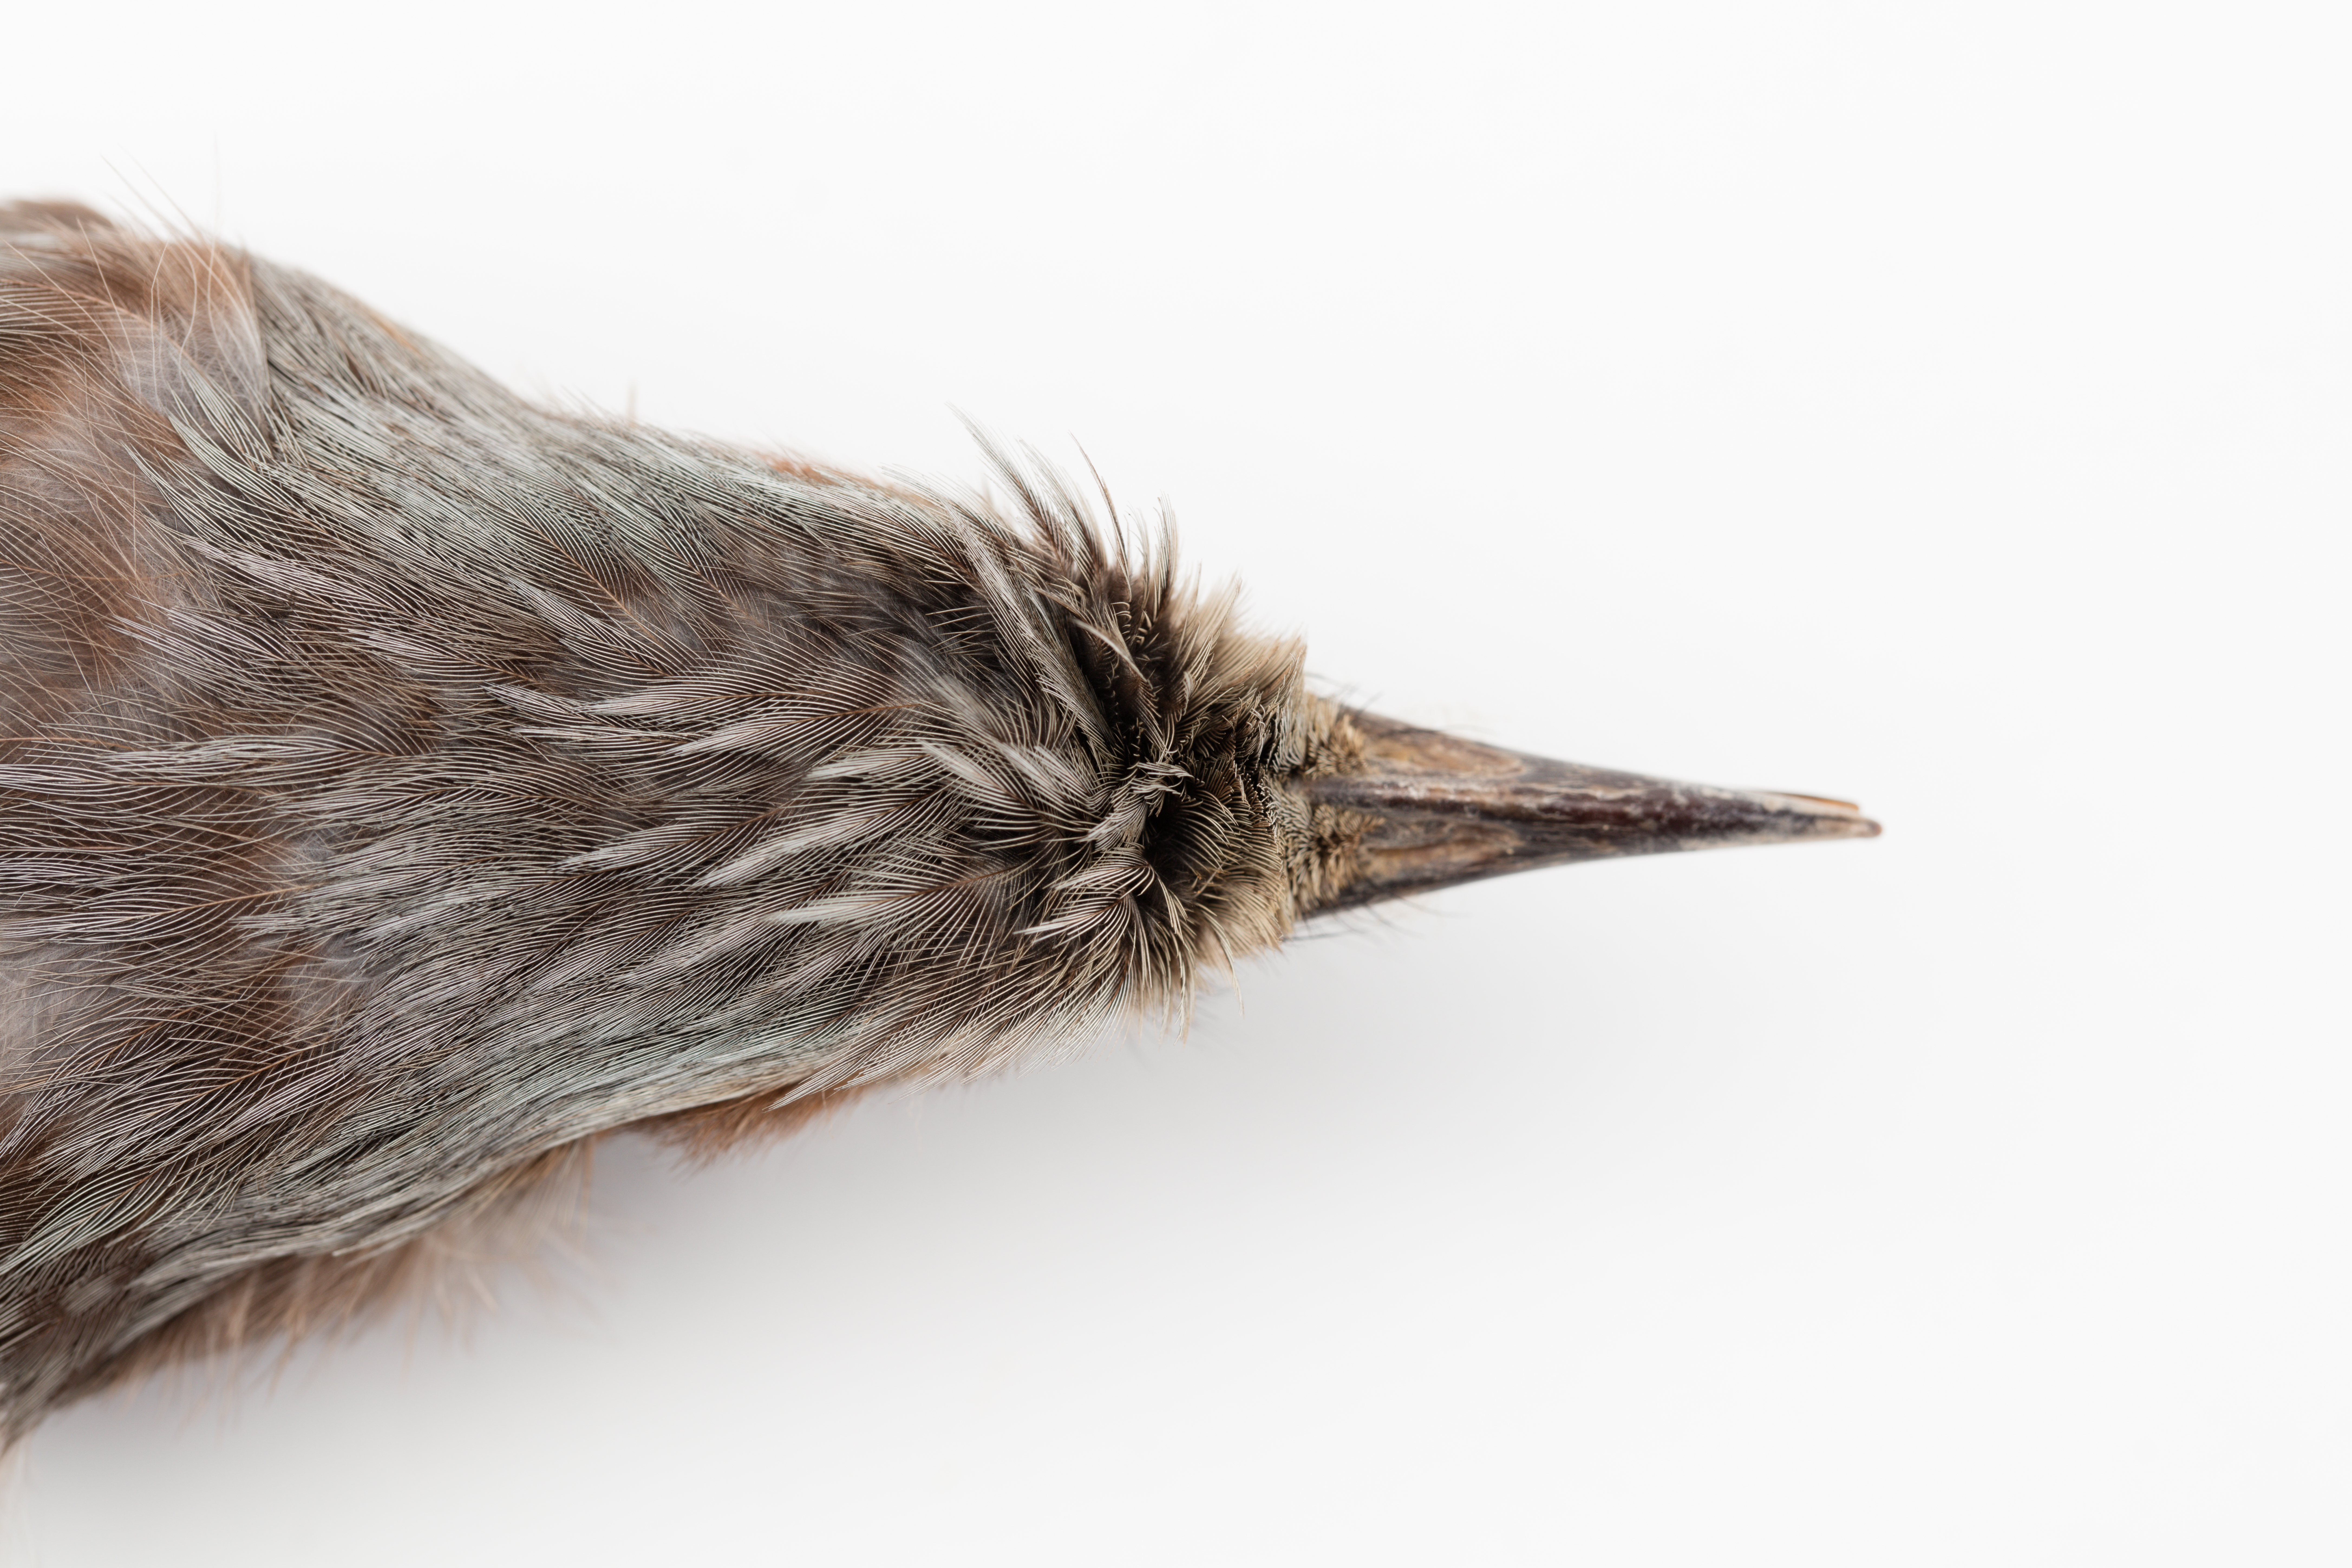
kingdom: Animalia
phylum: Chordata
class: Aves
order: Passeriformes
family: Pycnonotidae
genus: Hypsipetes
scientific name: Hypsipetes amaurotis
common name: Brown-eared bulbul
